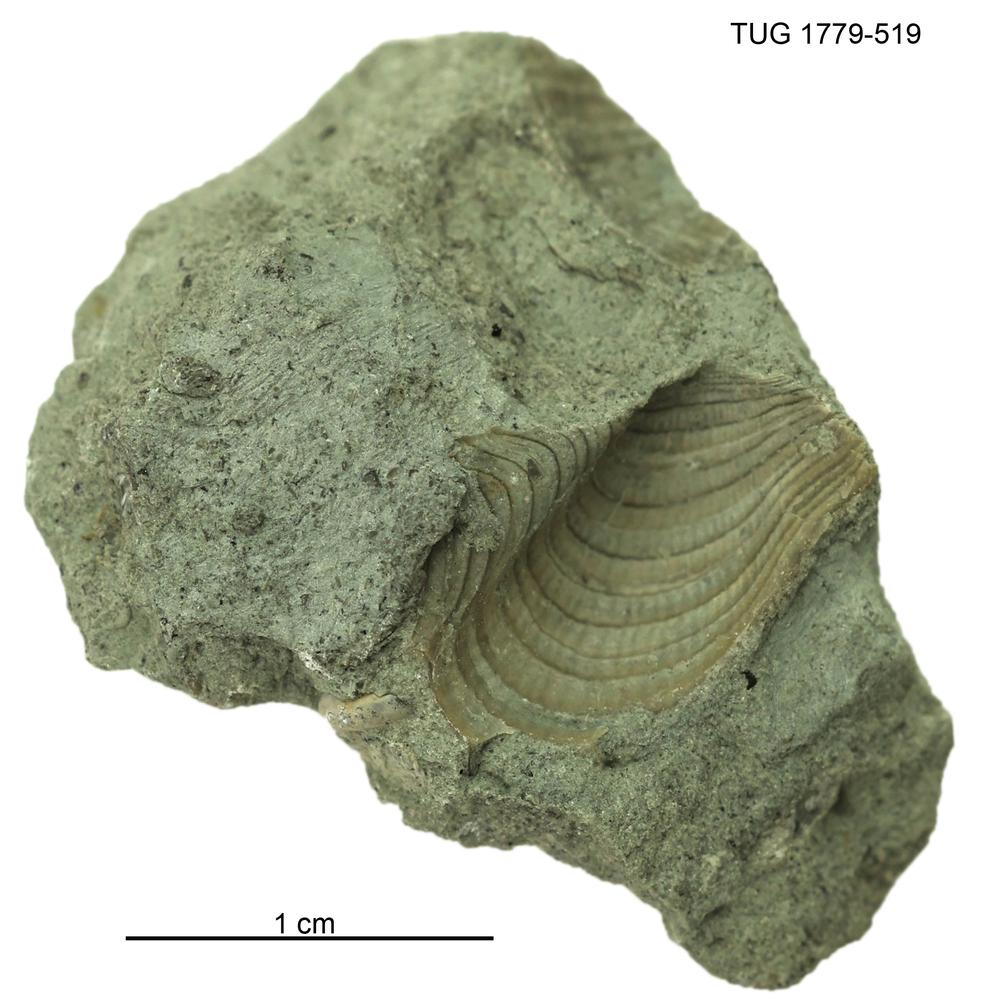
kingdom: Animalia
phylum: Mollusca
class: Bivalvia
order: Ostreida
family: Pterineidae
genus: Pterinea
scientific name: Pterinea
